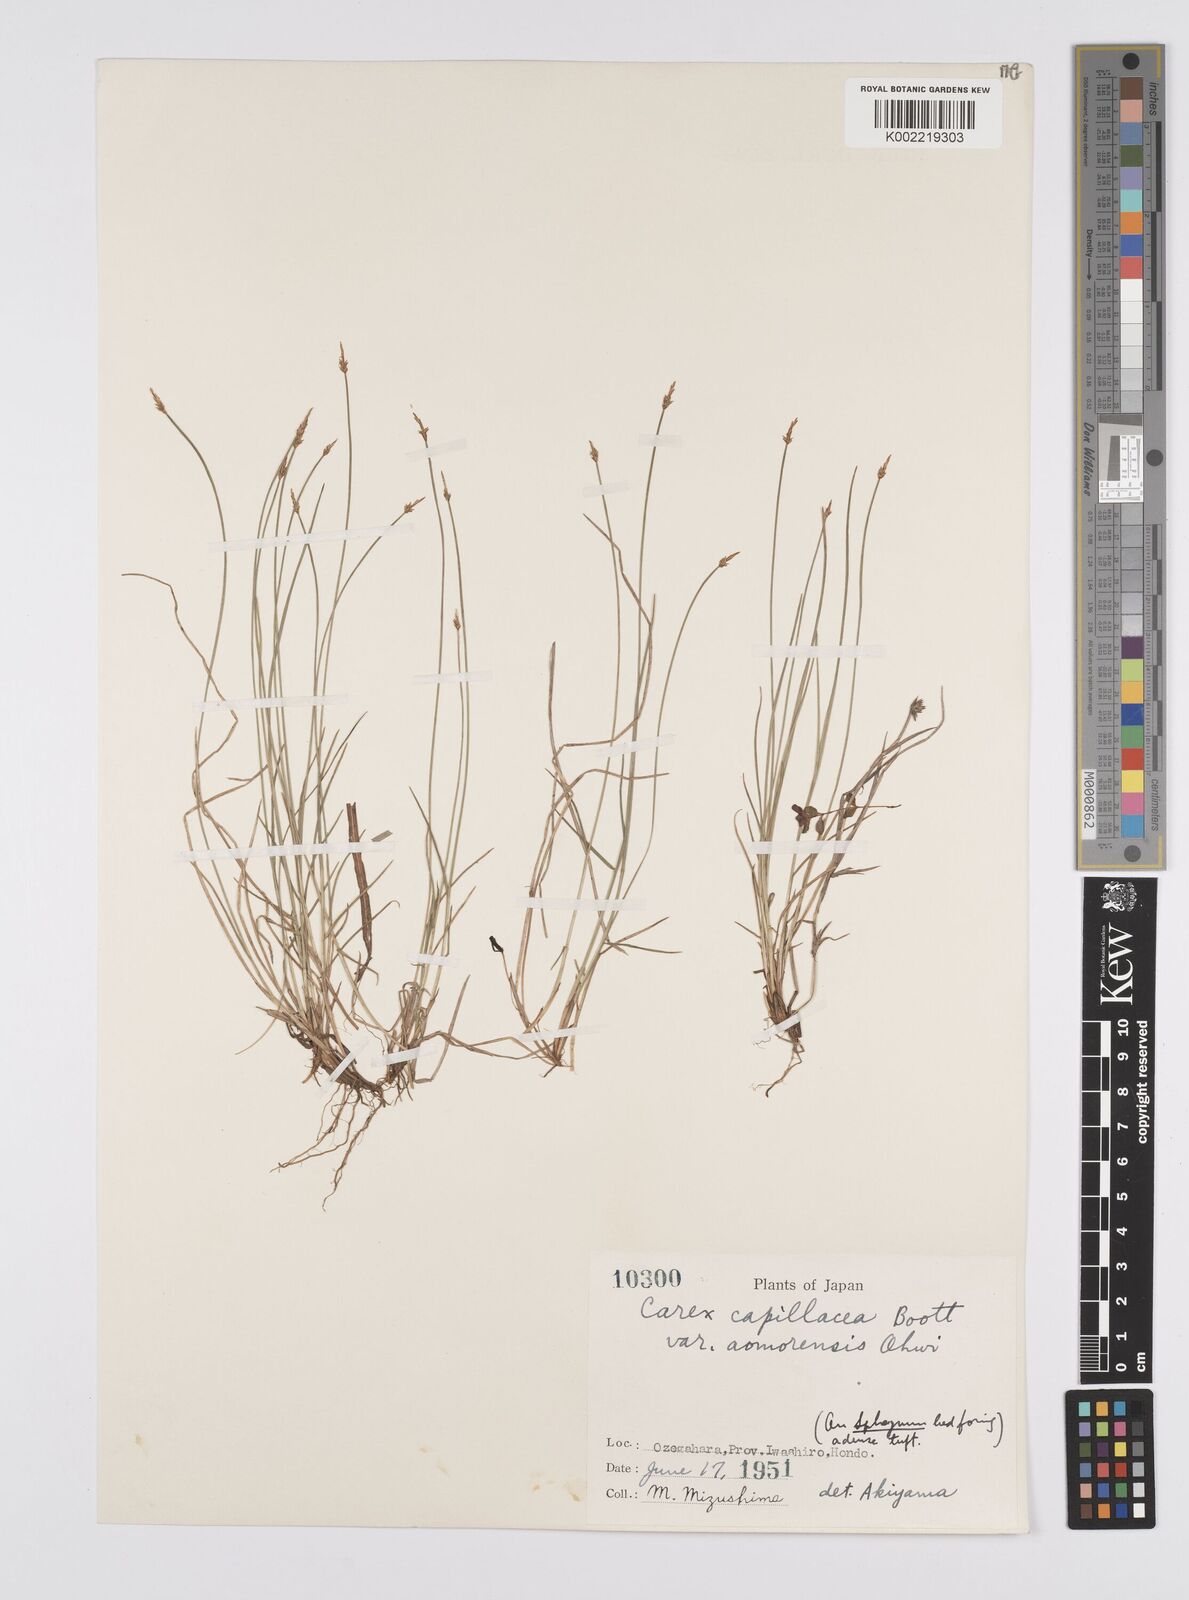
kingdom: Plantae
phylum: Tracheophyta
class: Liliopsida
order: Poales
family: Cyperaceae
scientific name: Cyperaceae
